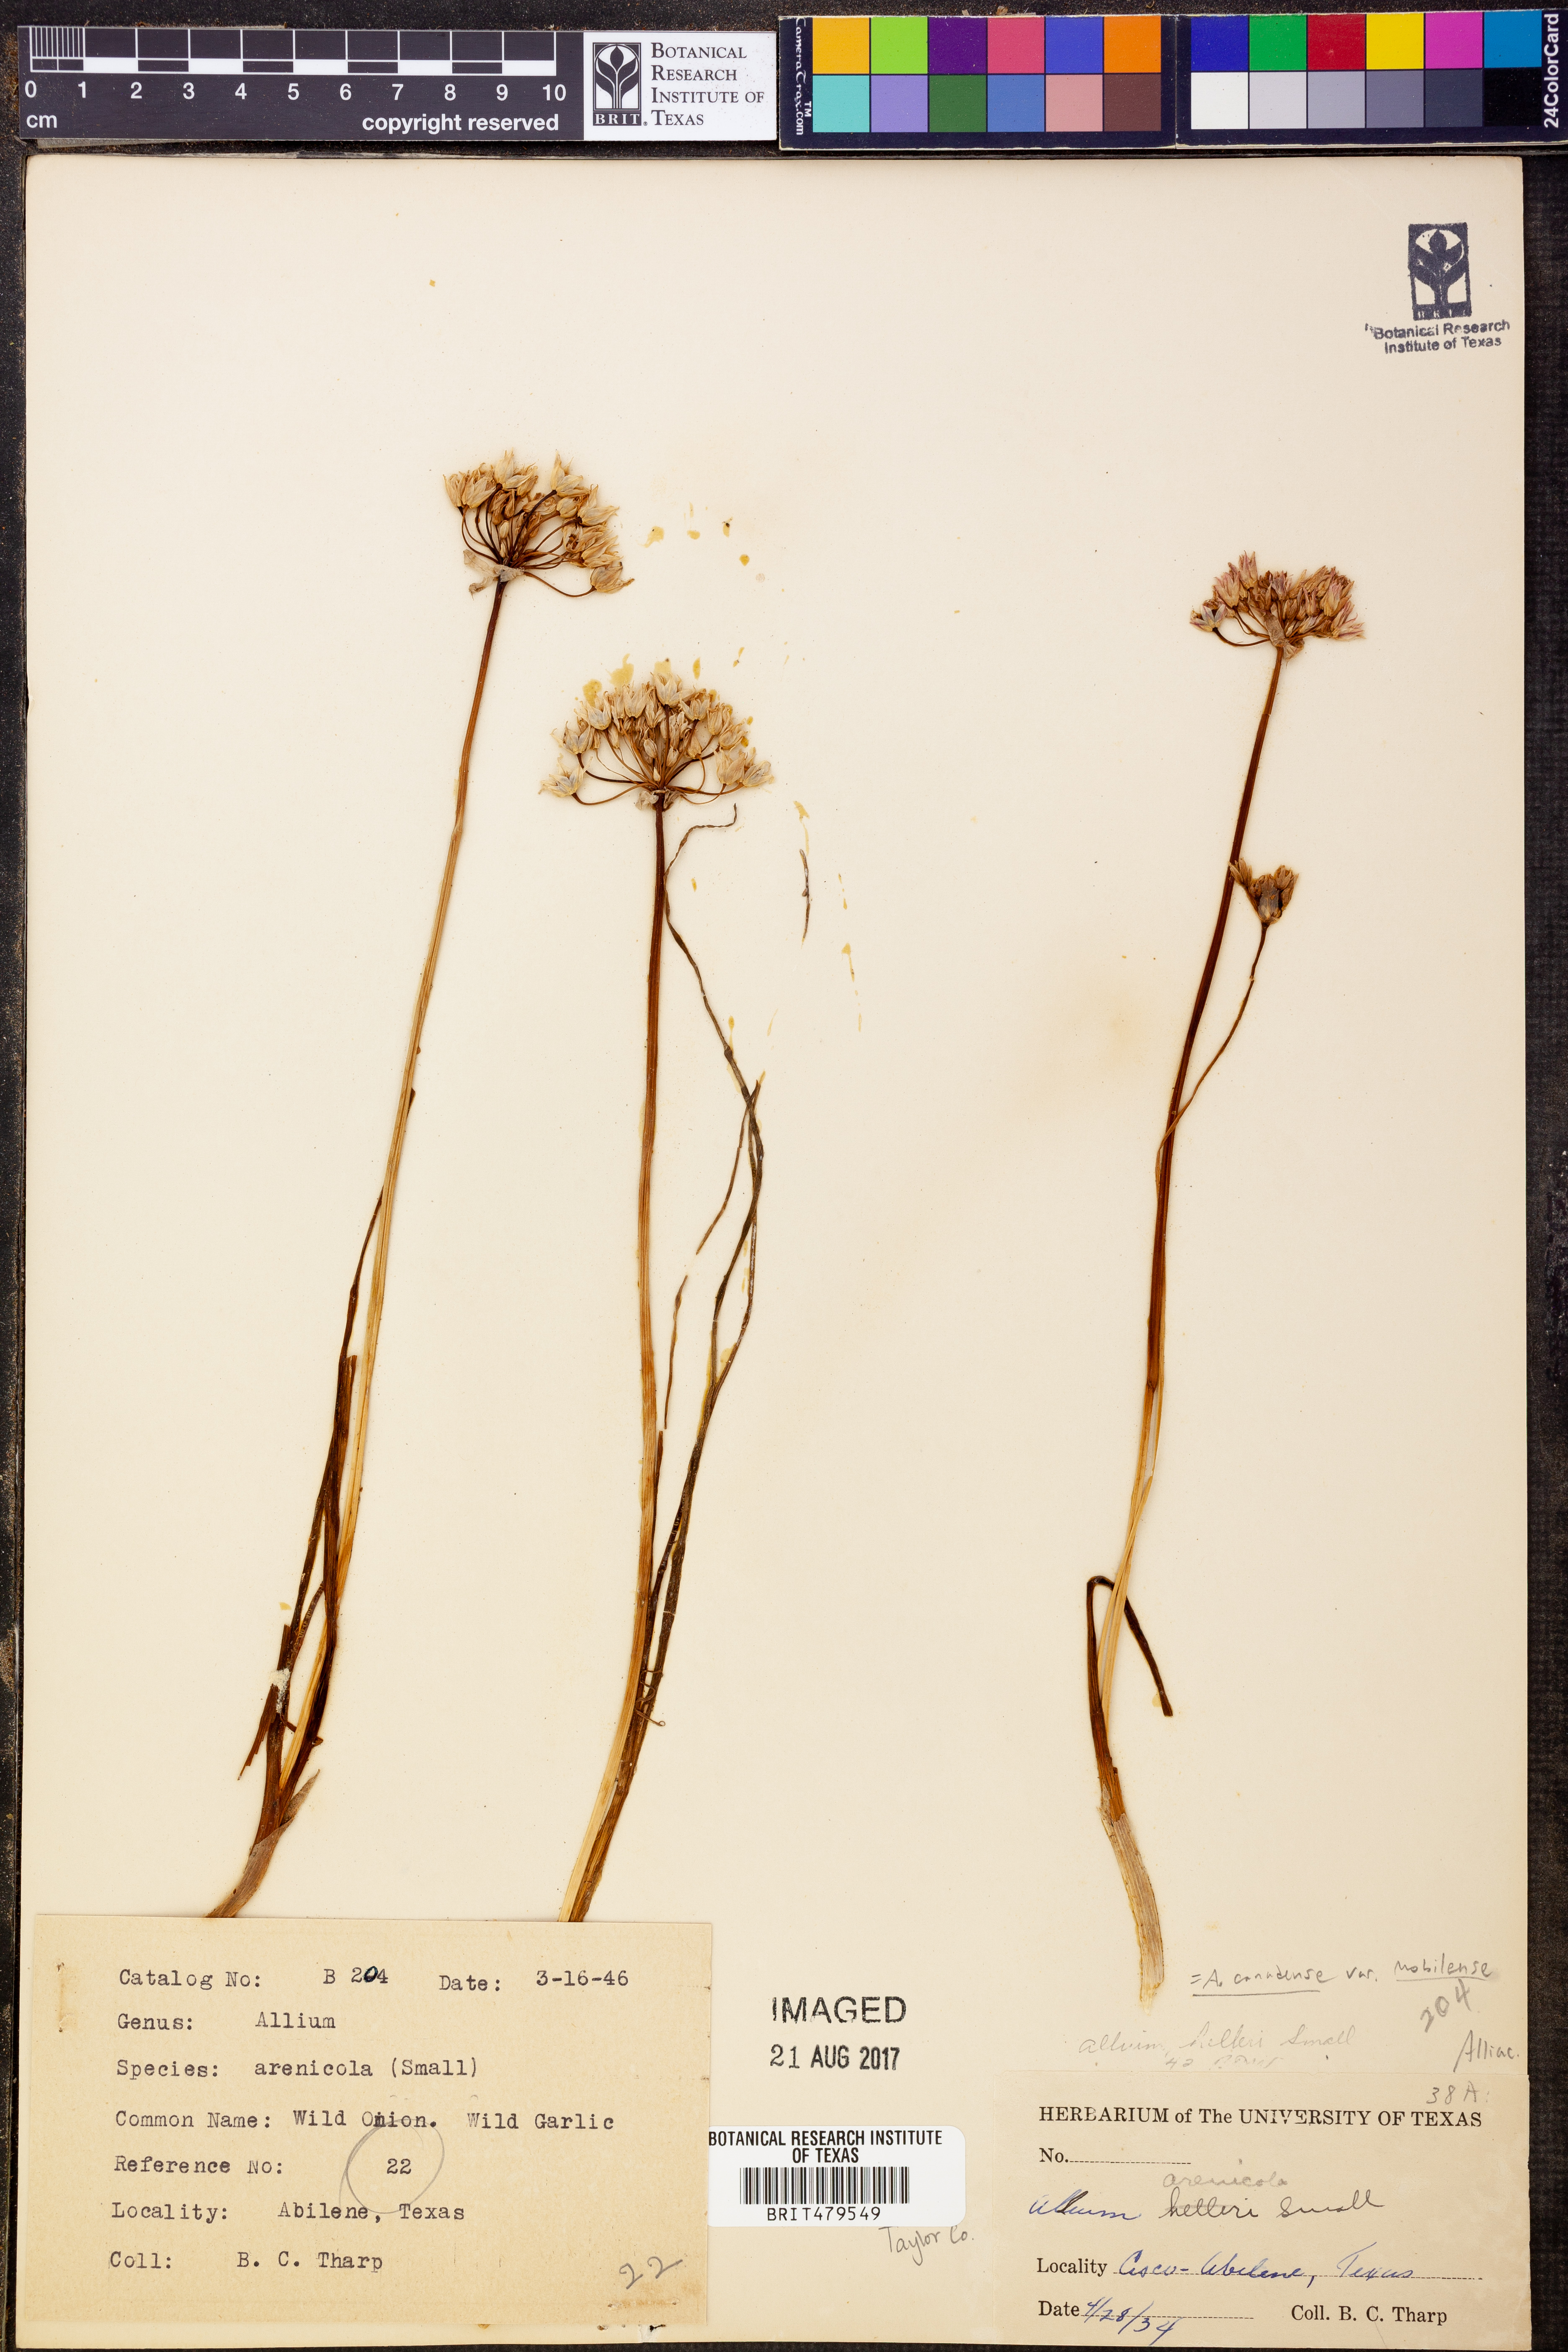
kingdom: Plantae
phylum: Tracheophyta
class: Liliopsida
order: Asparagales
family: Amaryllidaceae
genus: Allium
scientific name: Allium geyeri
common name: Geyer's onion
